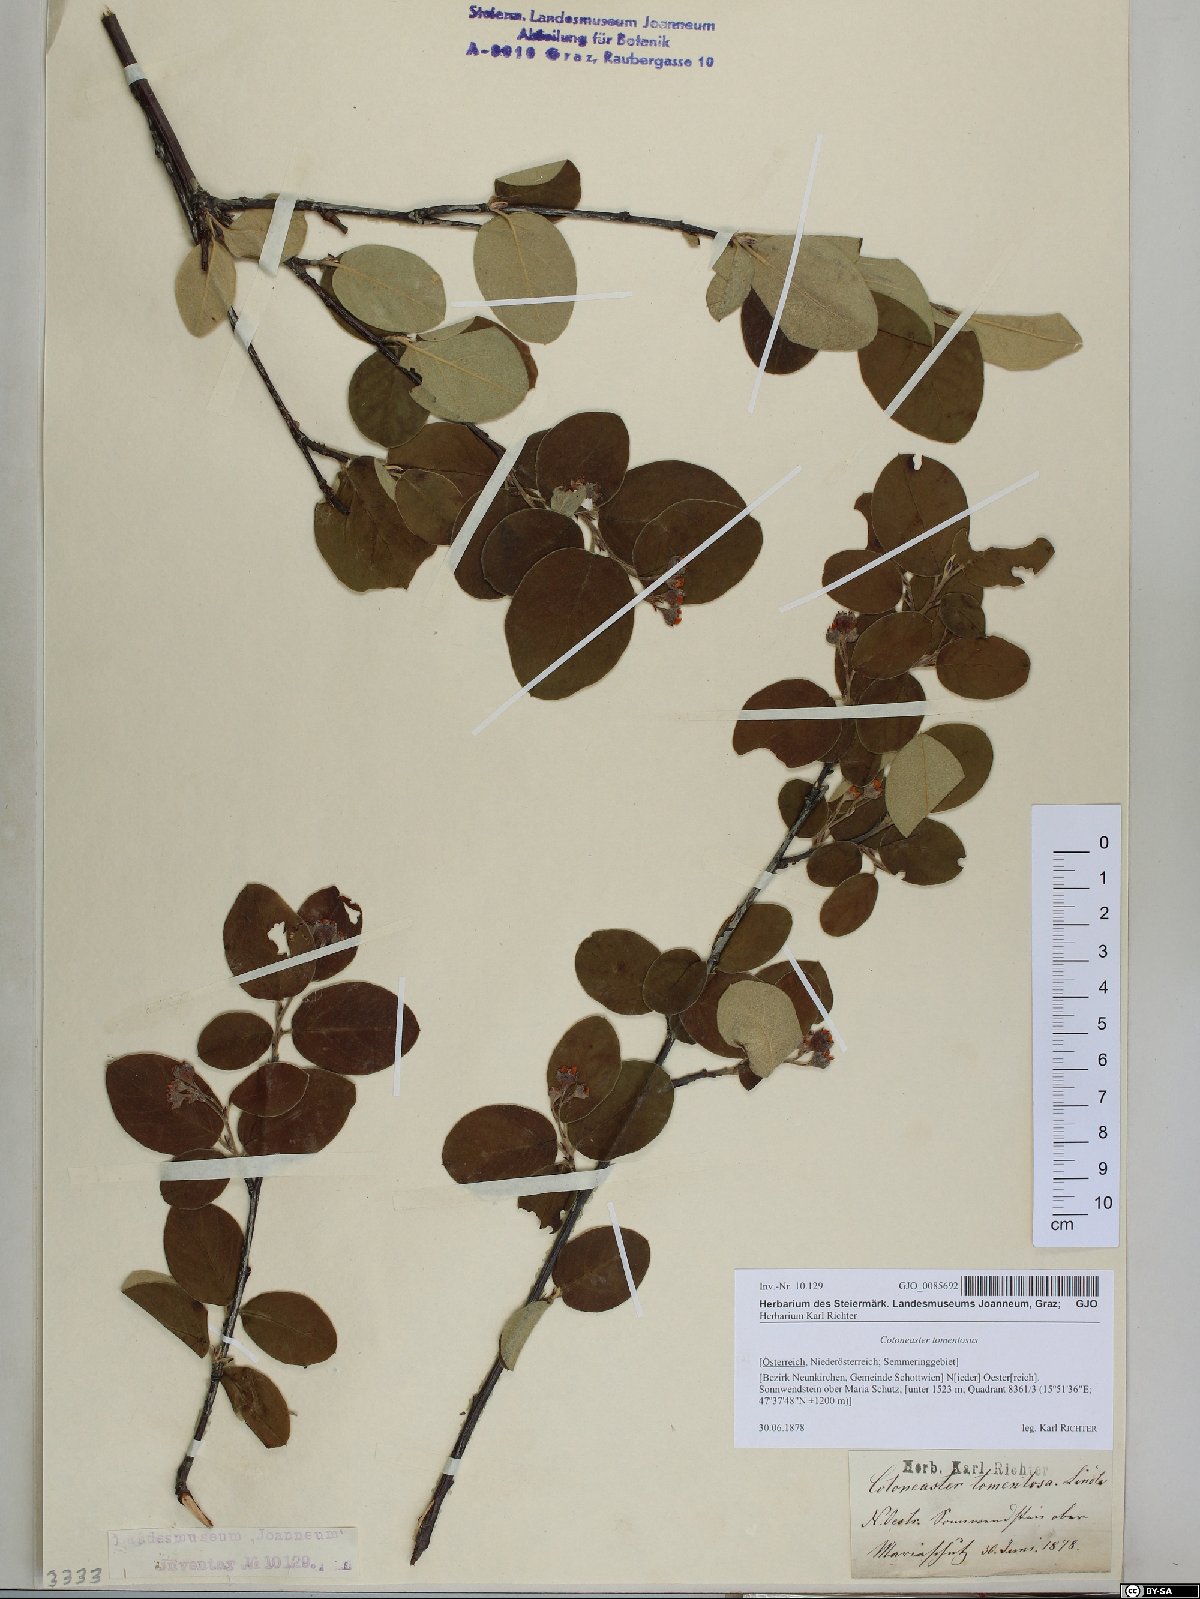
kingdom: Plantae
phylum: Tracheophyta
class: Magnoliopsida
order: Rosales
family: Rosaceae
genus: Cotoneaster
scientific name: Cotoneaster tomentosus
